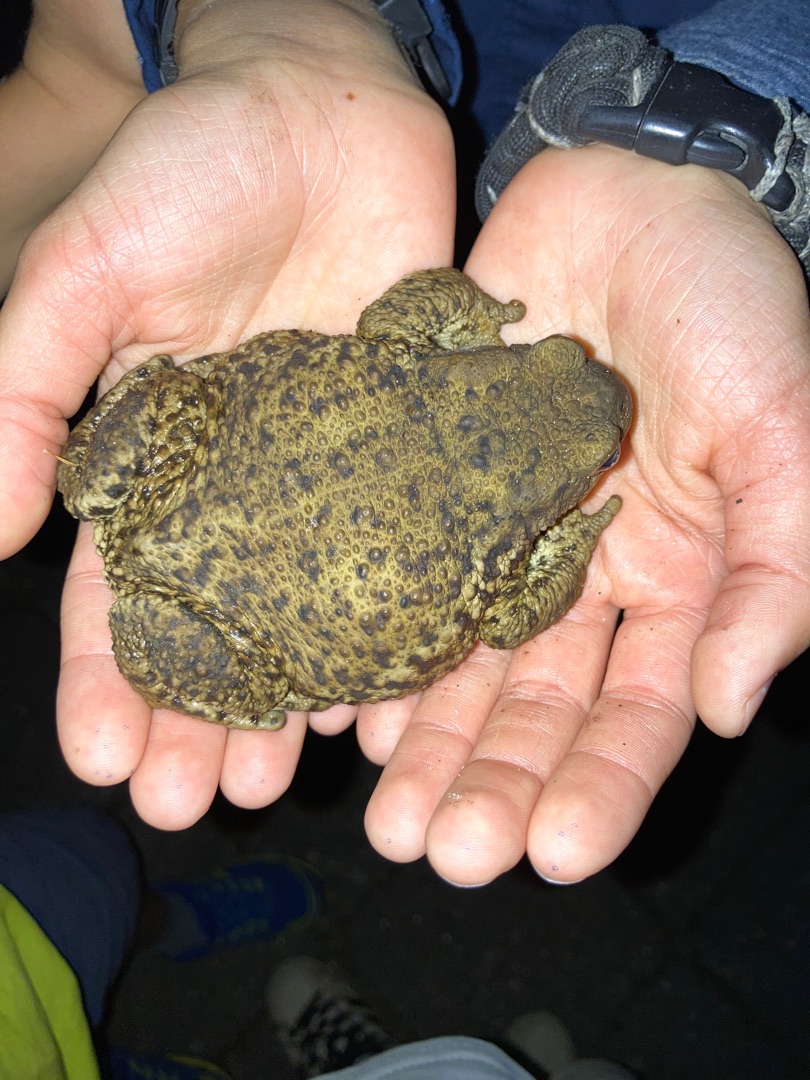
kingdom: Animalia
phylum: Chordata
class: Amphibia
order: Anura
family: Bufonidae
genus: Bufo
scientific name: Bufo bufo
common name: Skrubtudse
